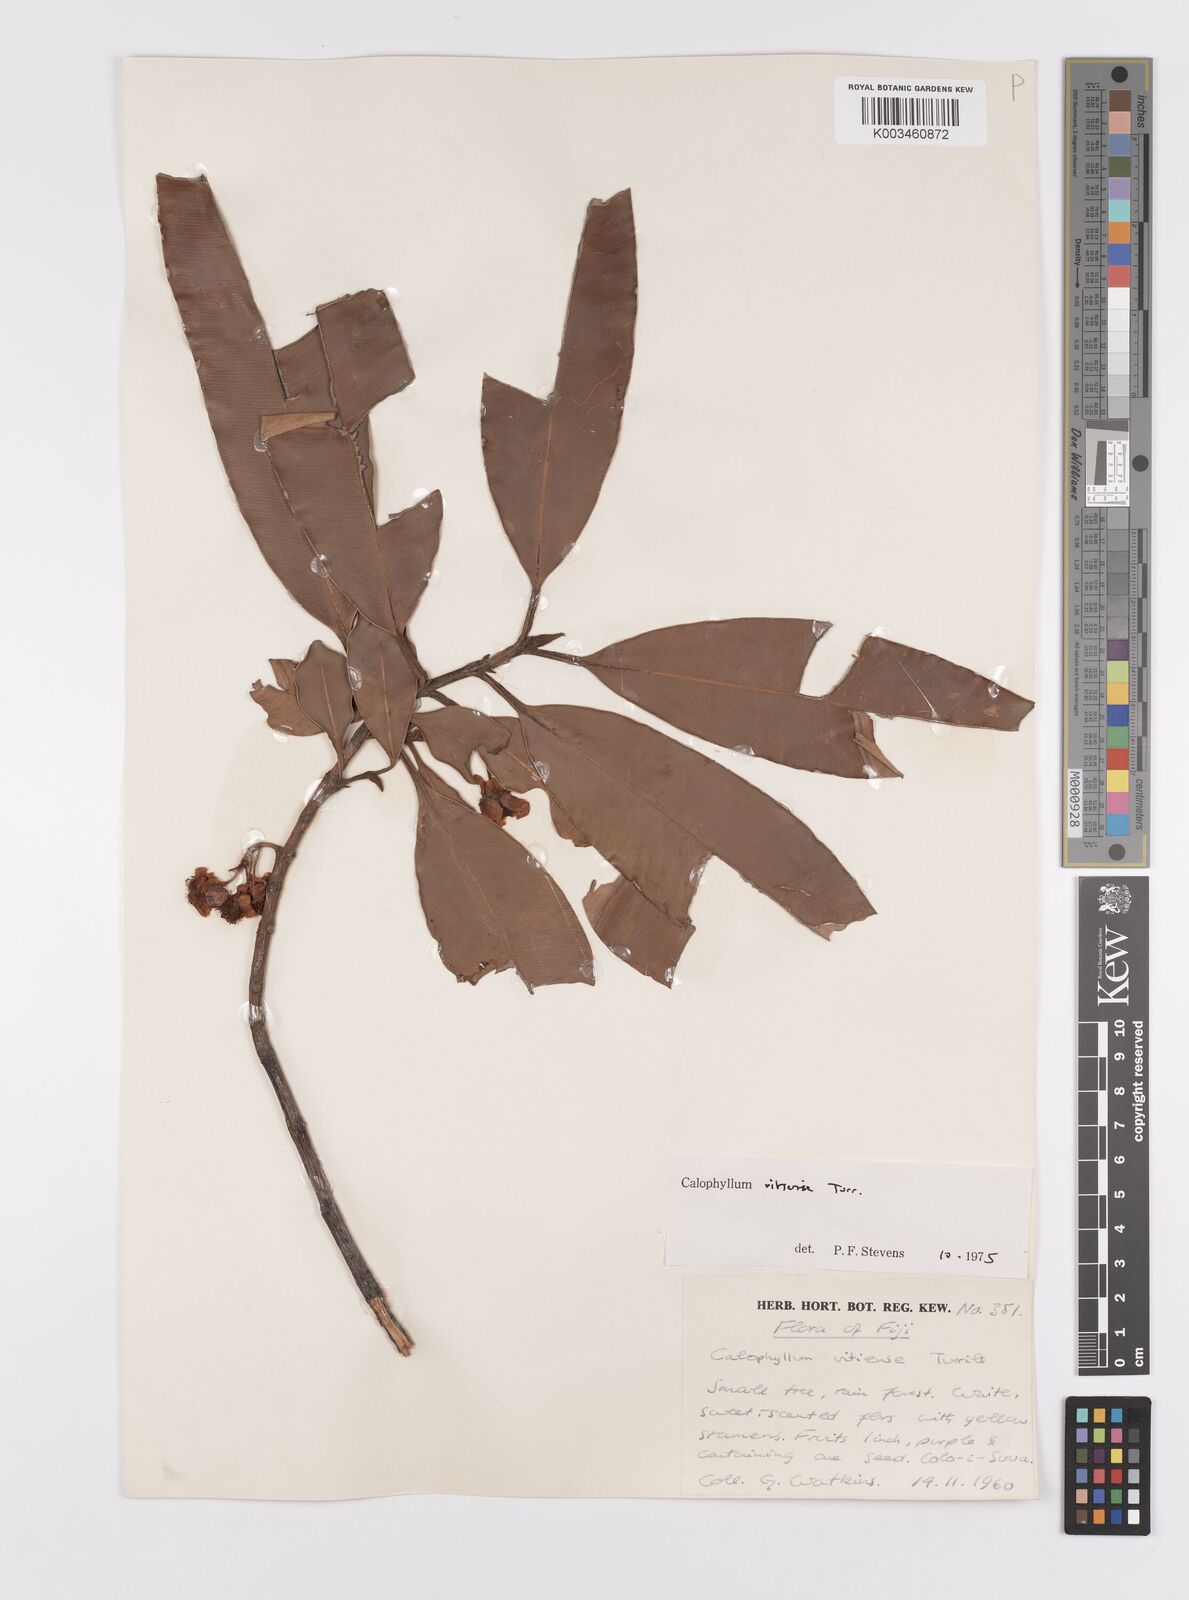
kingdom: Plantae
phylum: Tracheophyta
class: Magnoliopsida
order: Malpighiales
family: Calophyllaceae
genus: Calophyllum
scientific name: Calophyllum vitiense
